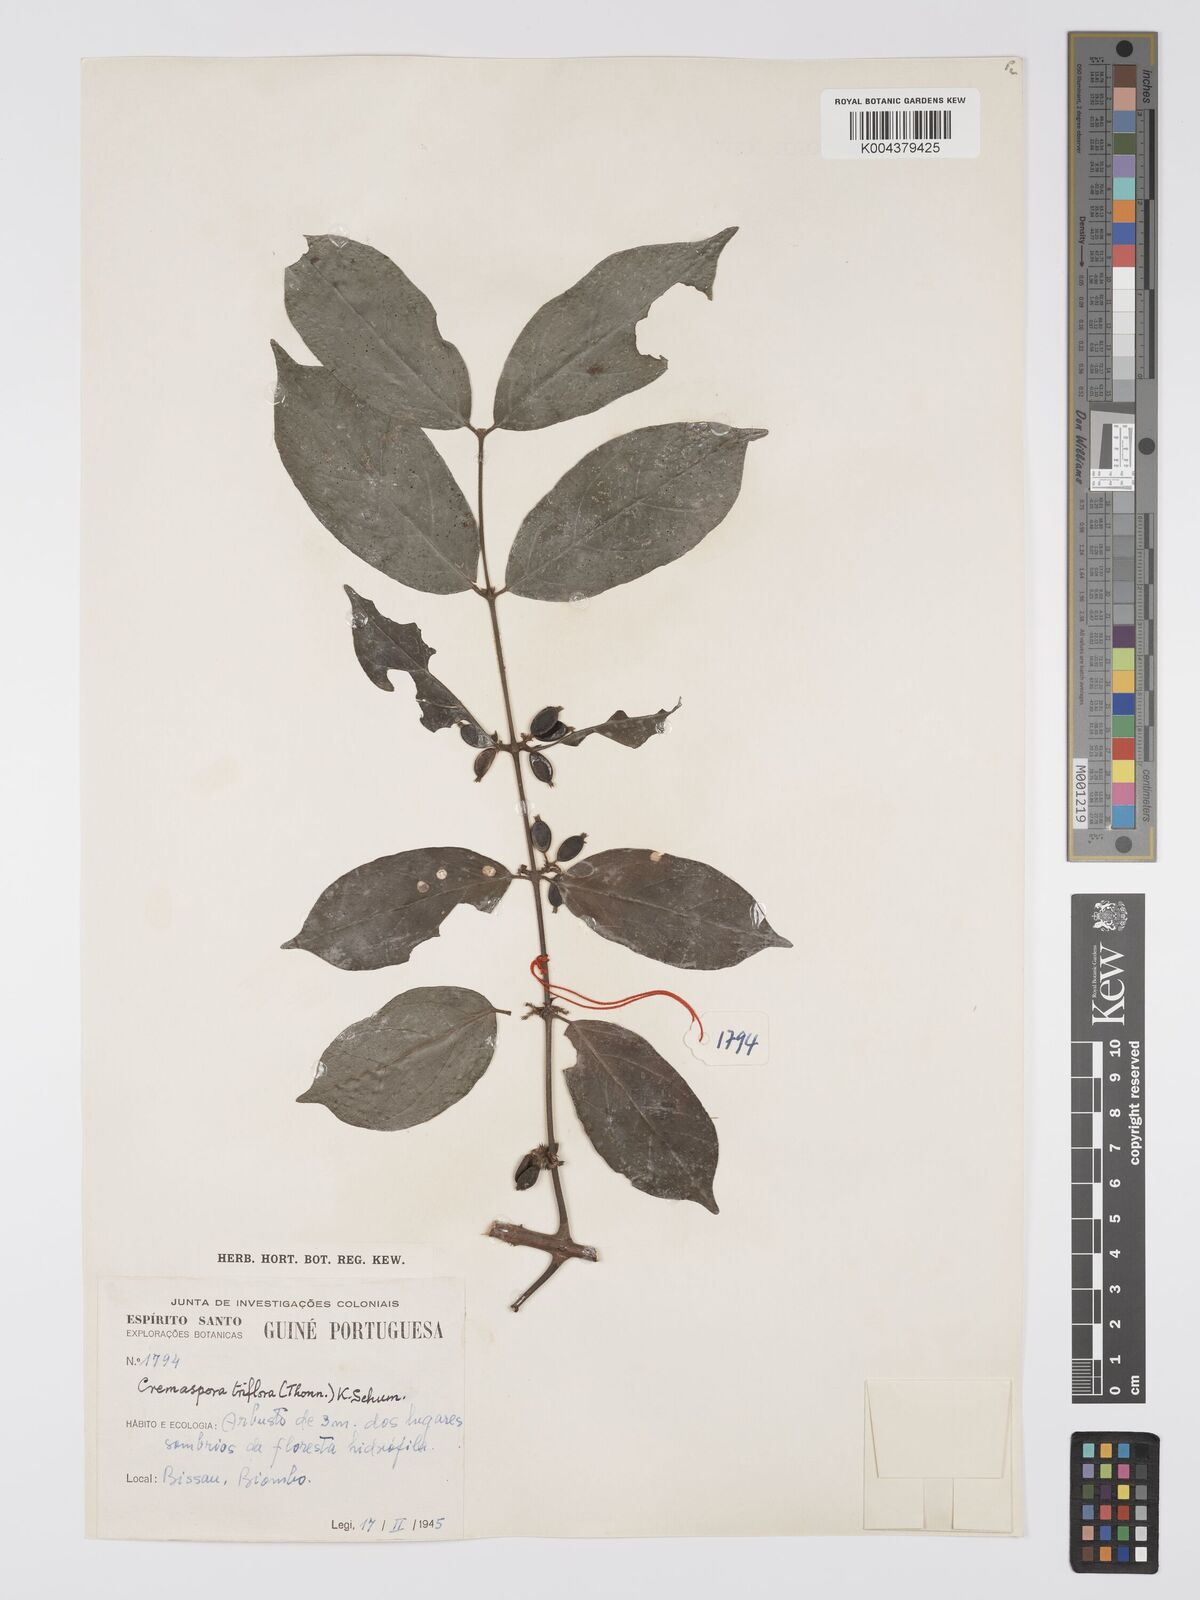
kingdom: Plantae
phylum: Tracheophyta
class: Magnoliopsida
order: Gentianales
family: Rubiaceae
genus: Cremaspora
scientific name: Cremaspora triflora
